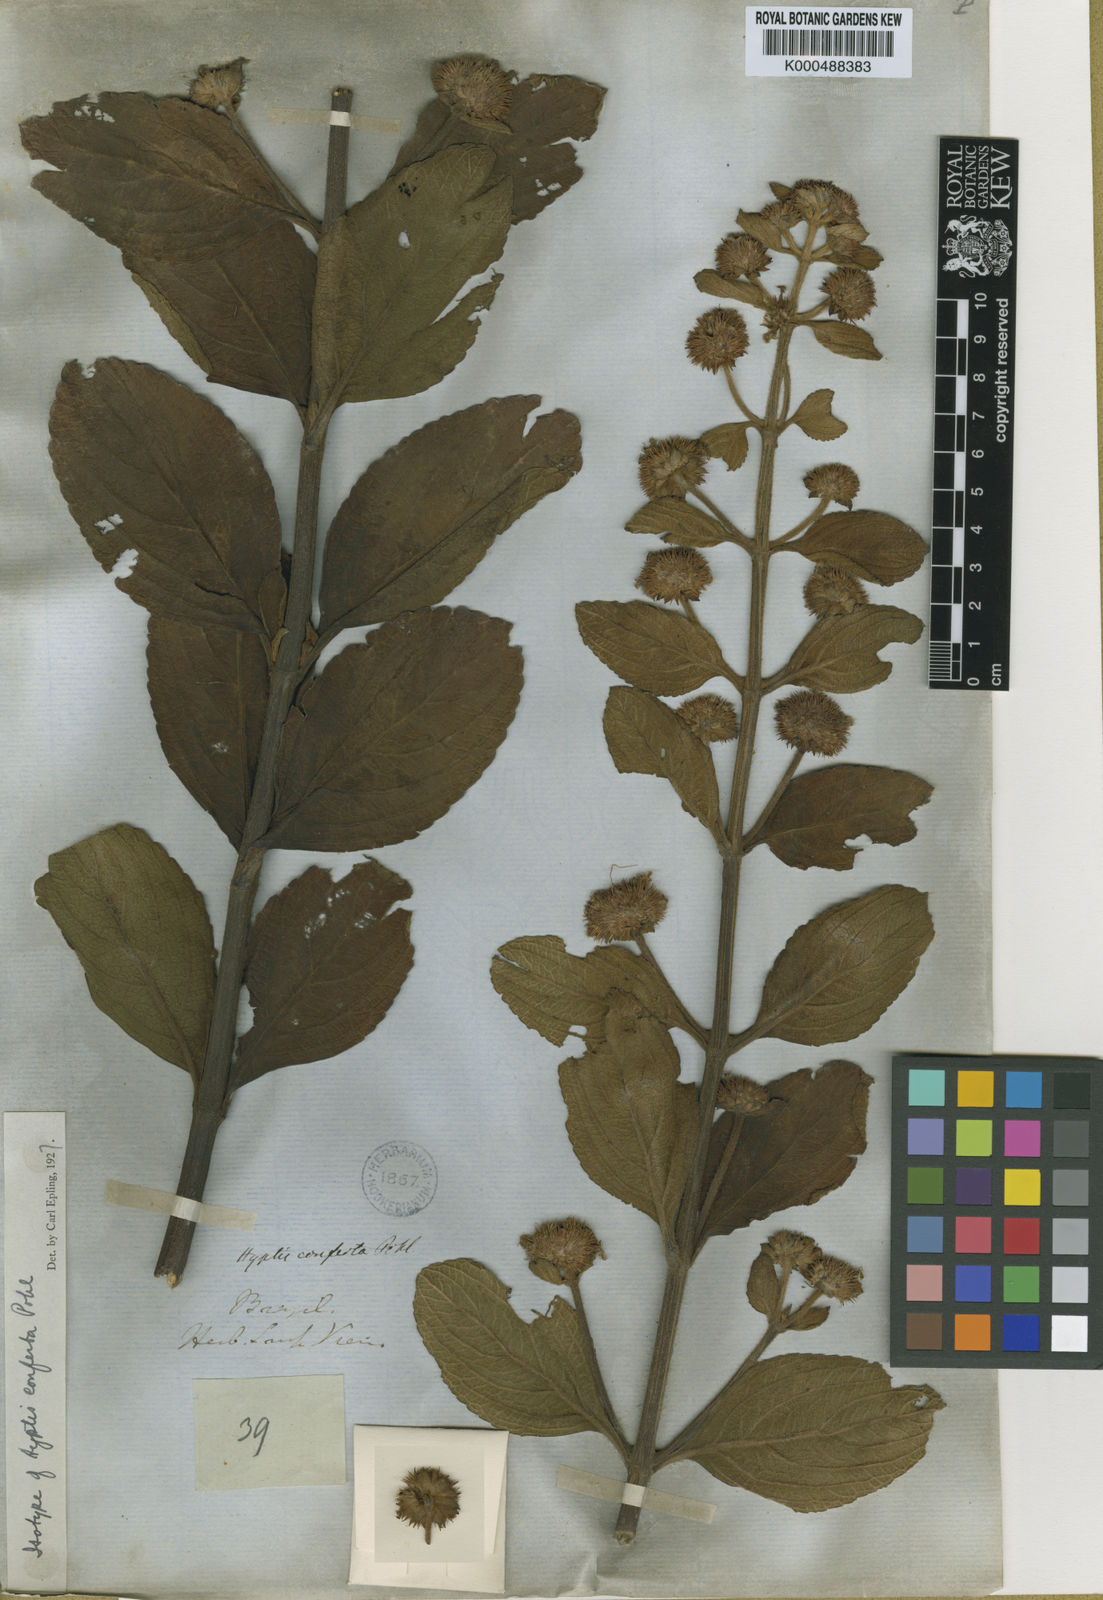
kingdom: Plantae
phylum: Tracheophyta
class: Magnoliopsida
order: Lamiales
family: Lamiaceae
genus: Hyptis
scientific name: Hyptis conferta
